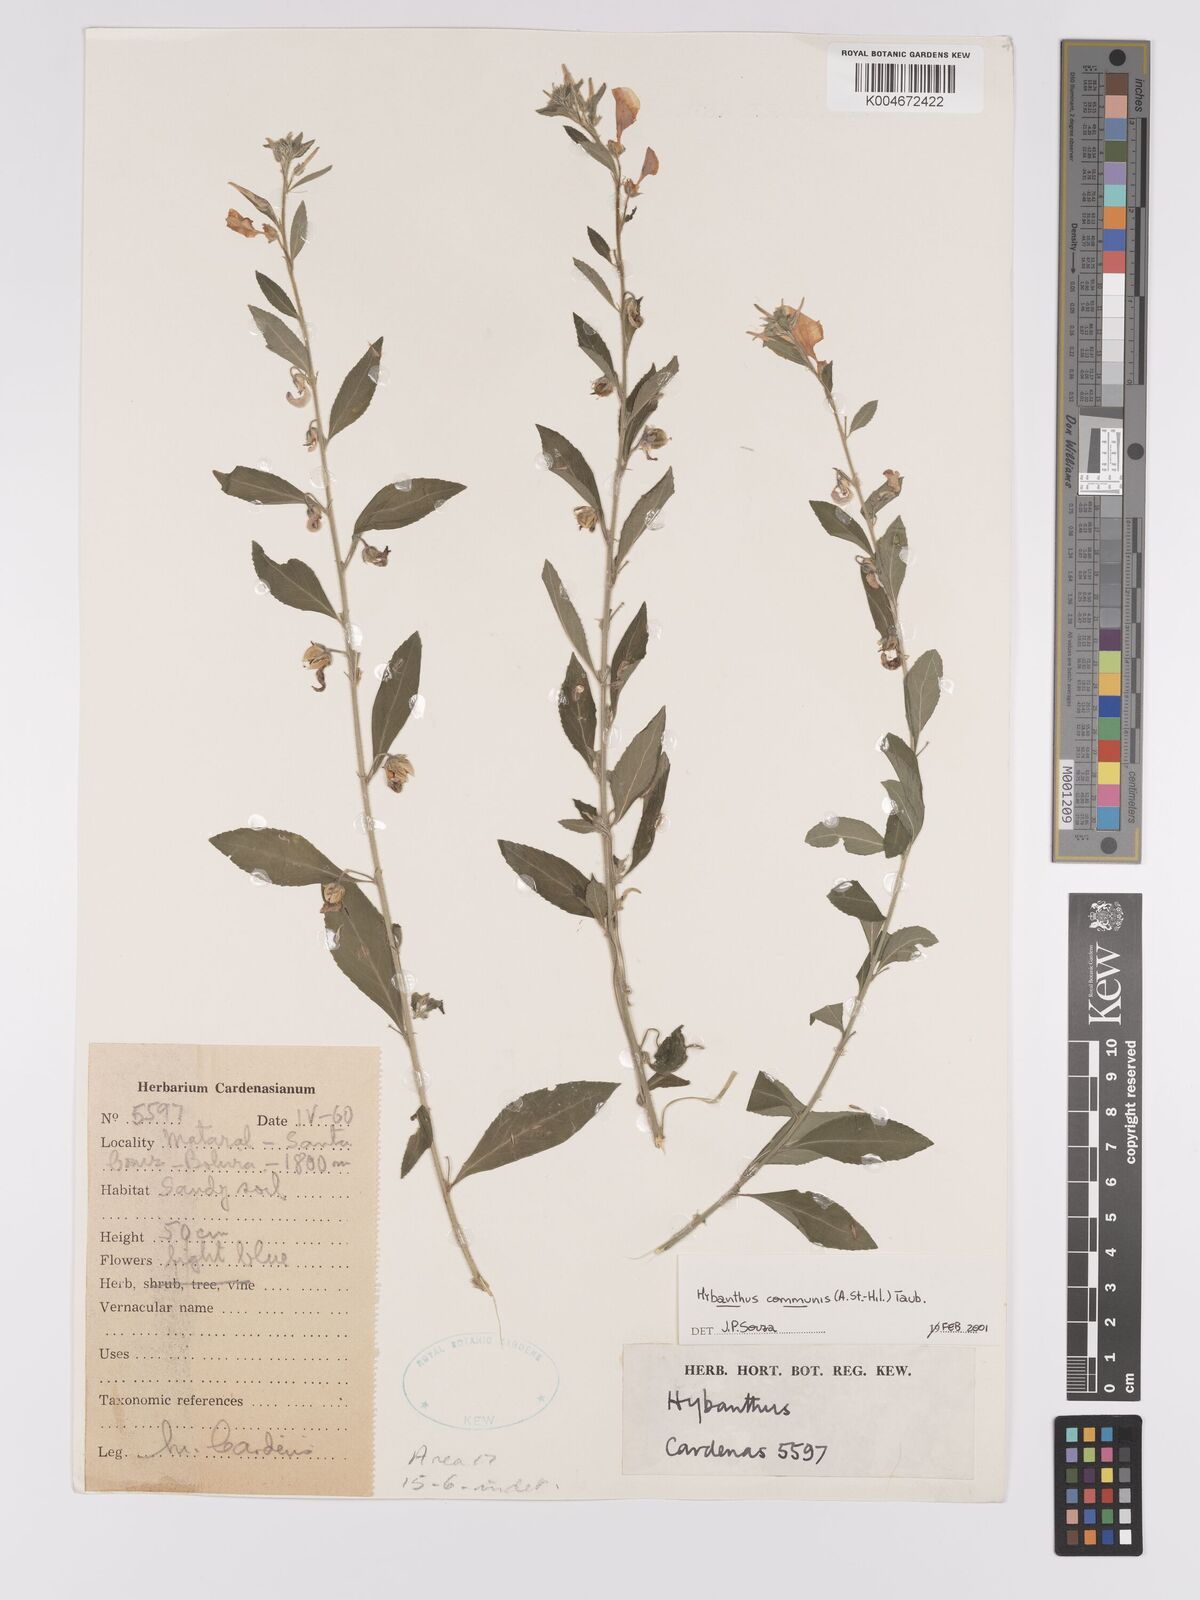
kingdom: Plantae
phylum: Tracheophyta
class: Magnoliopsida
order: Malpighiales
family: Violaceae
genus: Pombalia
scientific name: Pombalia communis
